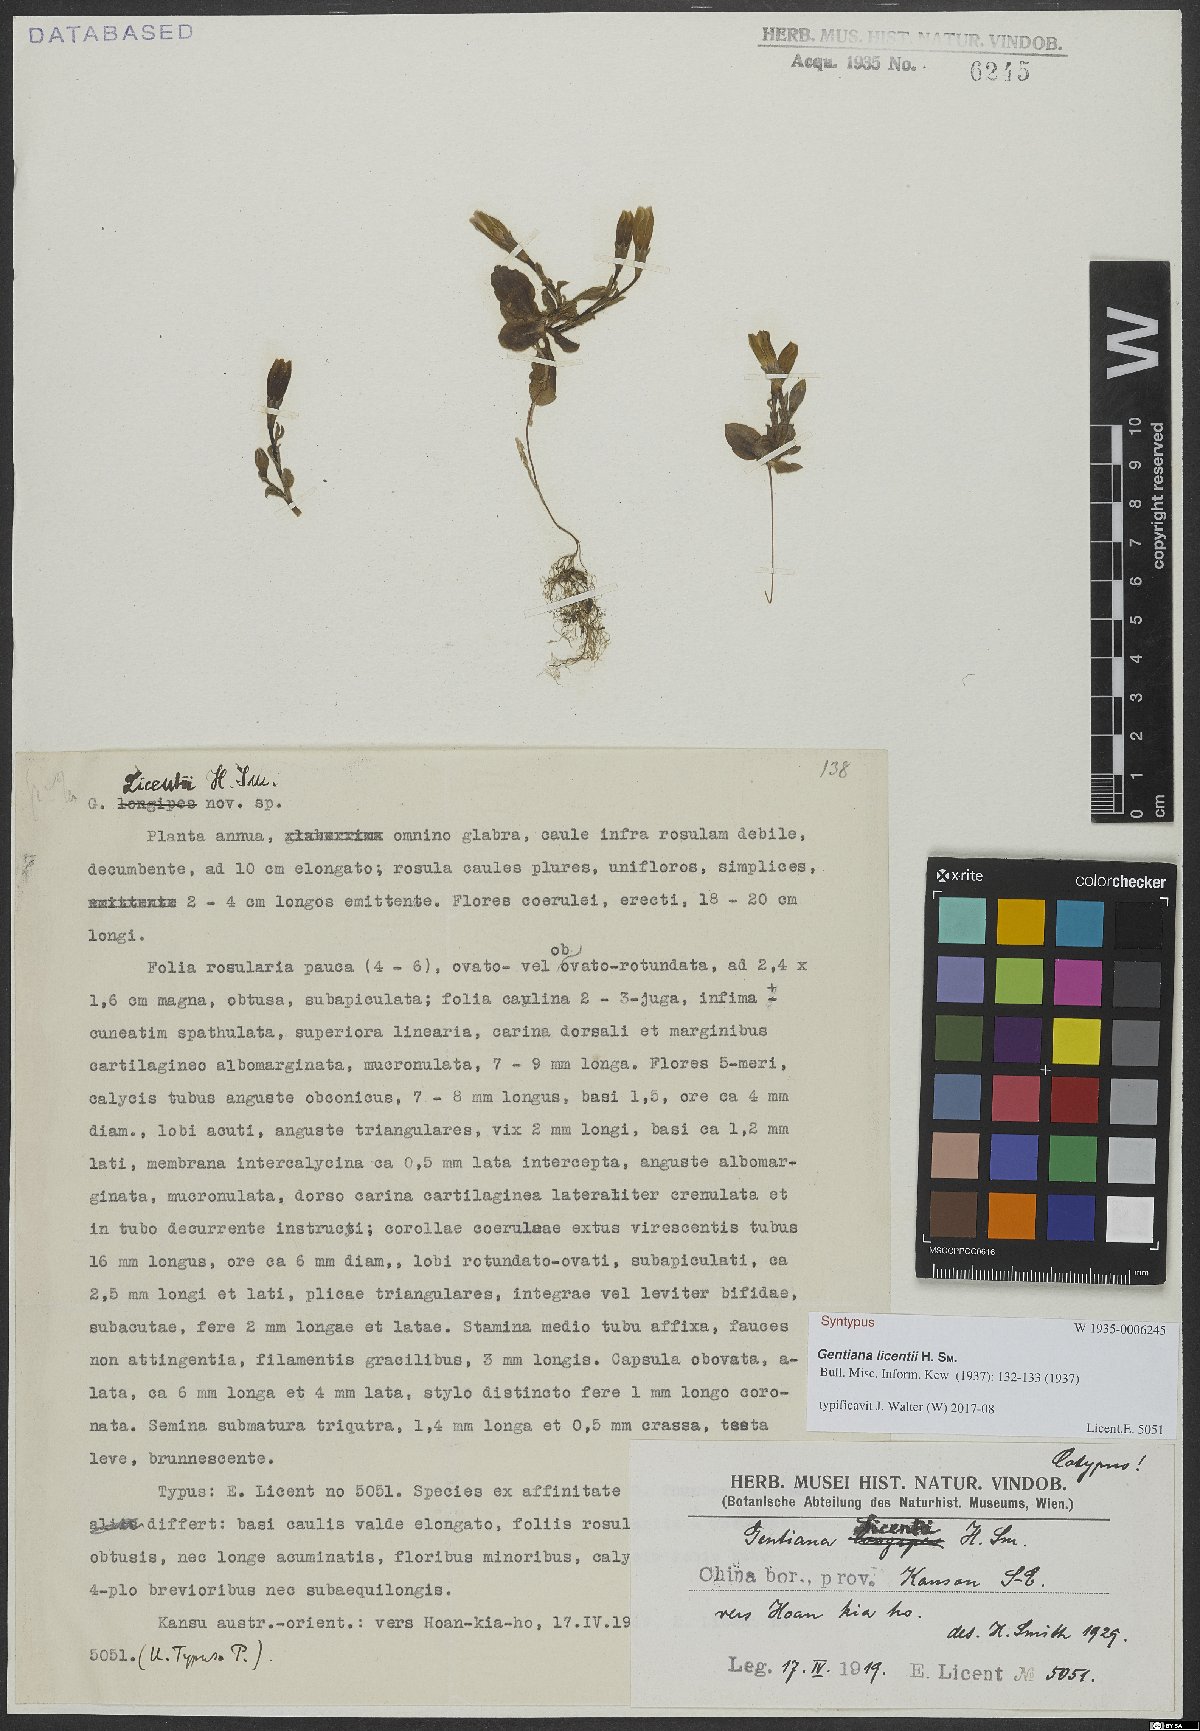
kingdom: Plantae
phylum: Tracheophyta
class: Magnoliopsida
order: Gentianales
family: Gentianaceae
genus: Gentiana
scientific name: Gentiana licentii
